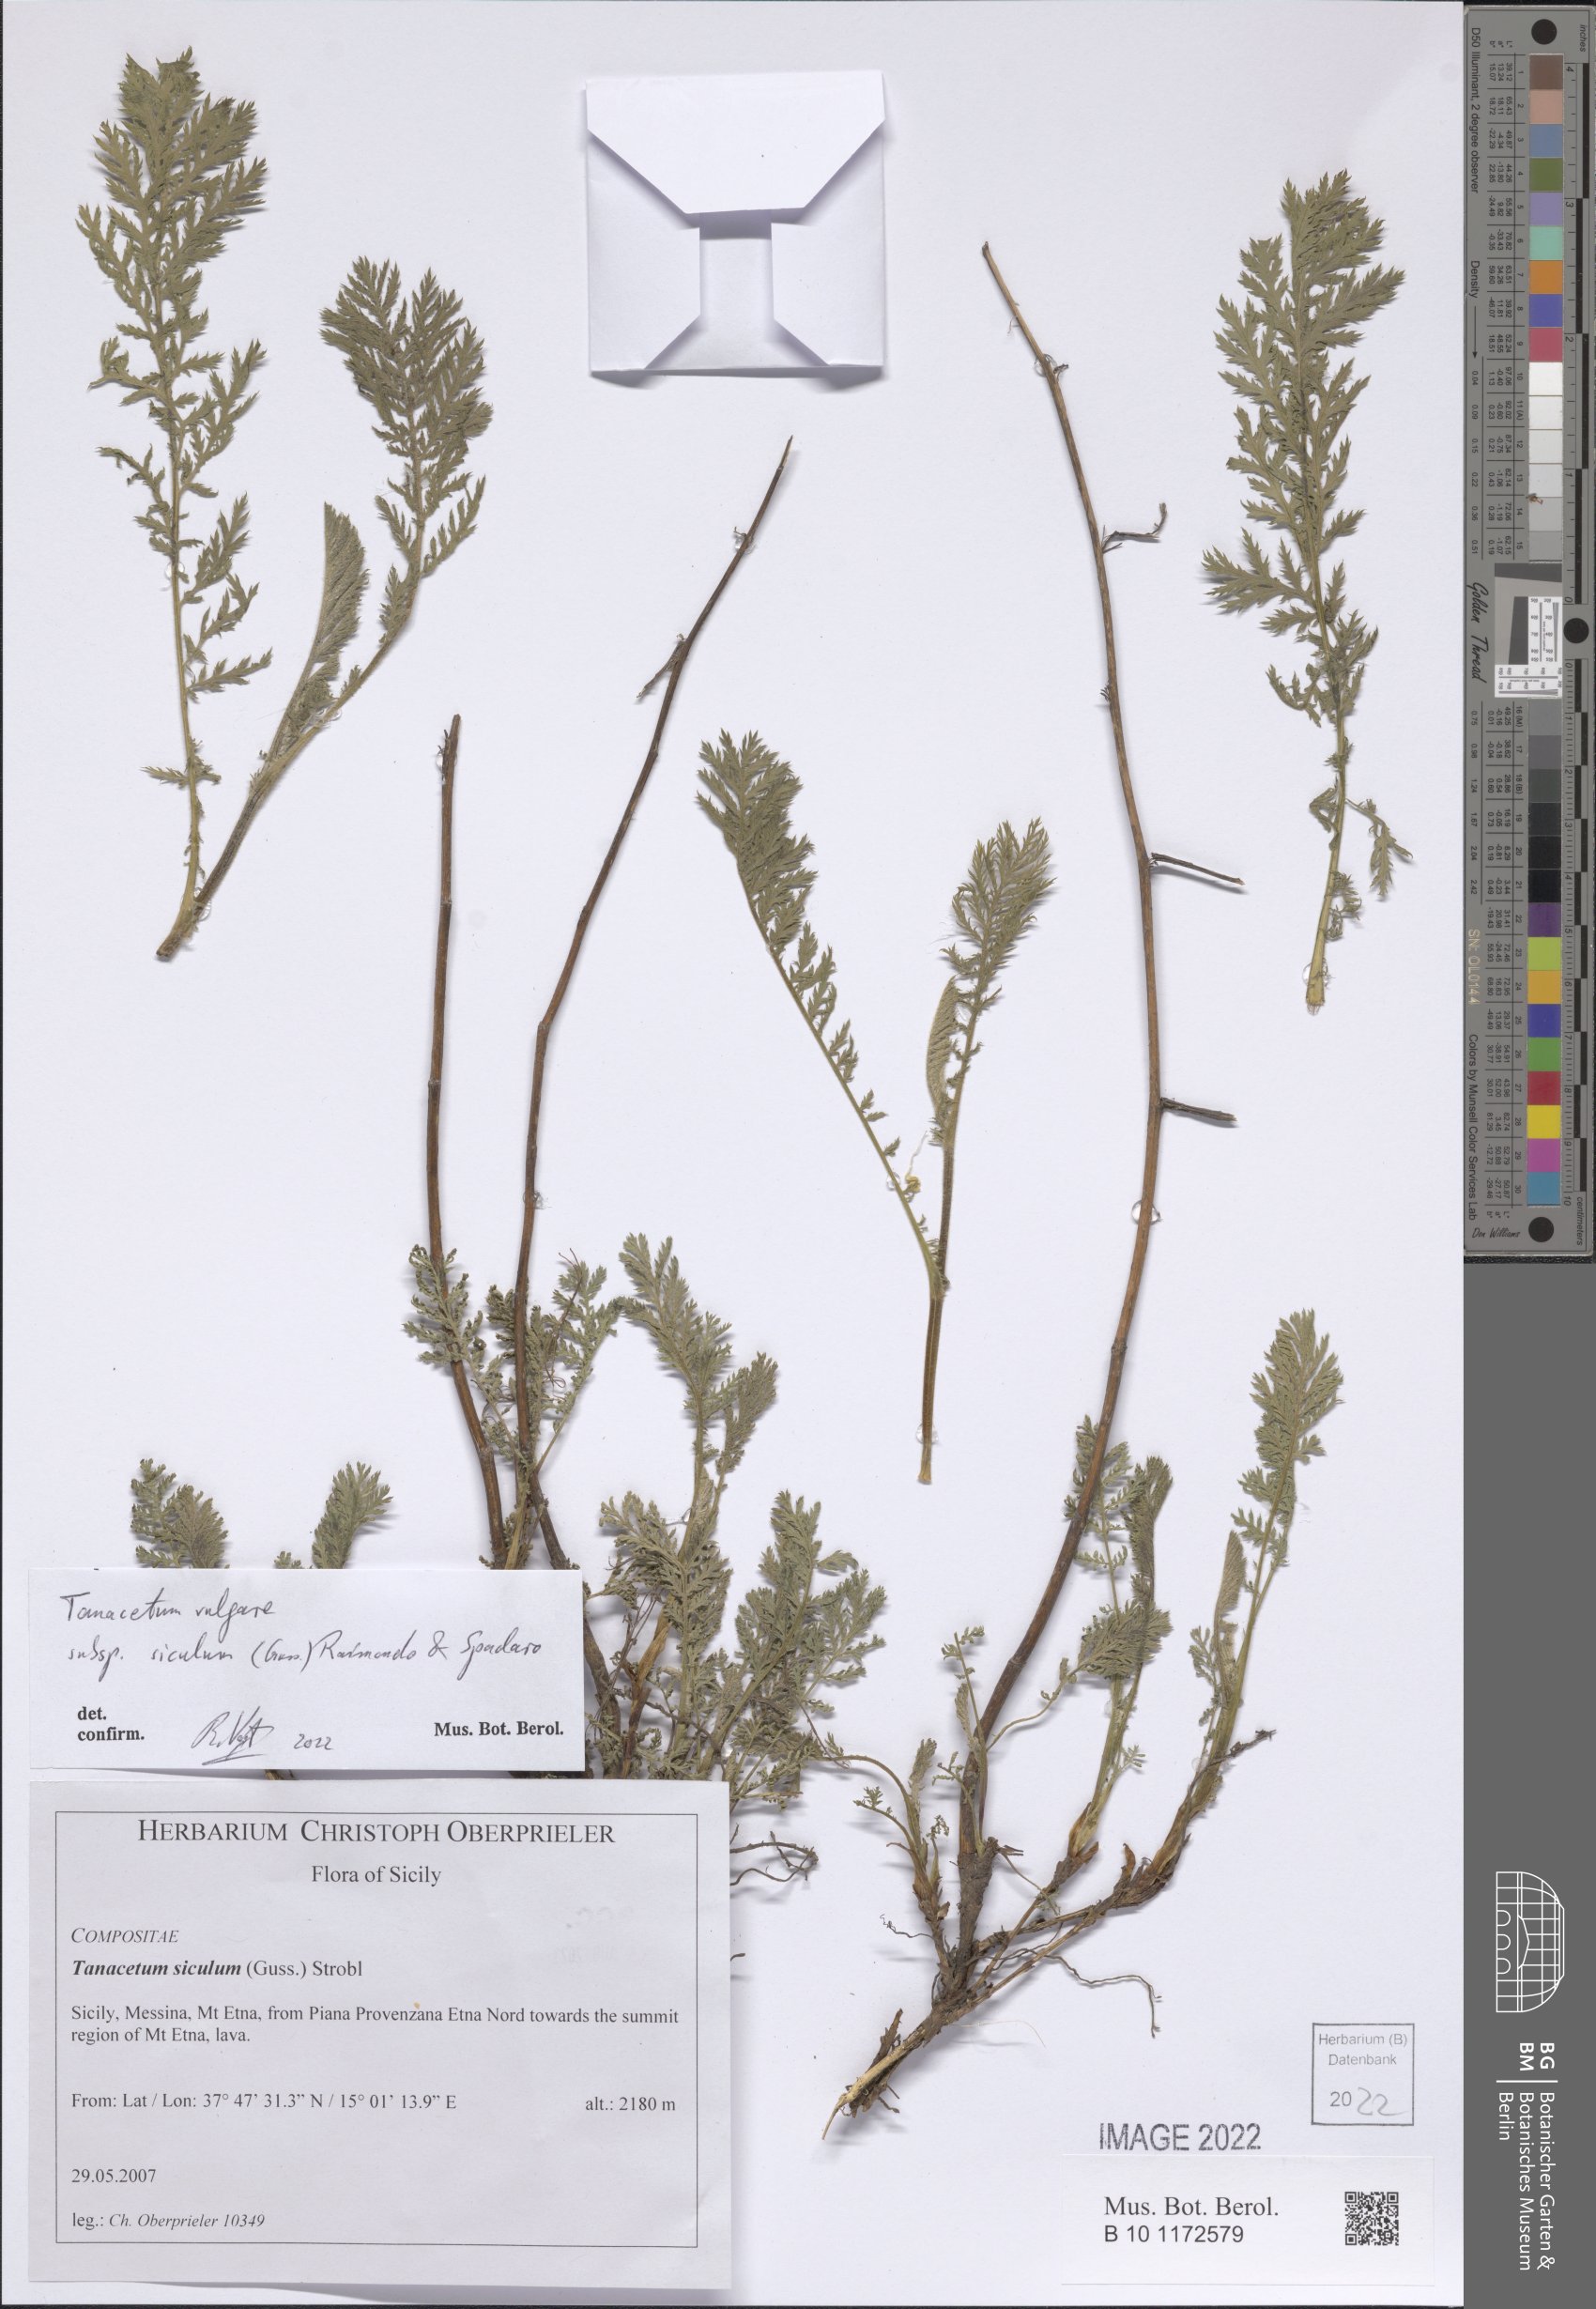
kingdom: Plantae
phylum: Tracheophyta
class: Magnoliopsida
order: Asterales
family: Asteraceae
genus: Tanacetum
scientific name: Tanacetum vulgare
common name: Common tansy
